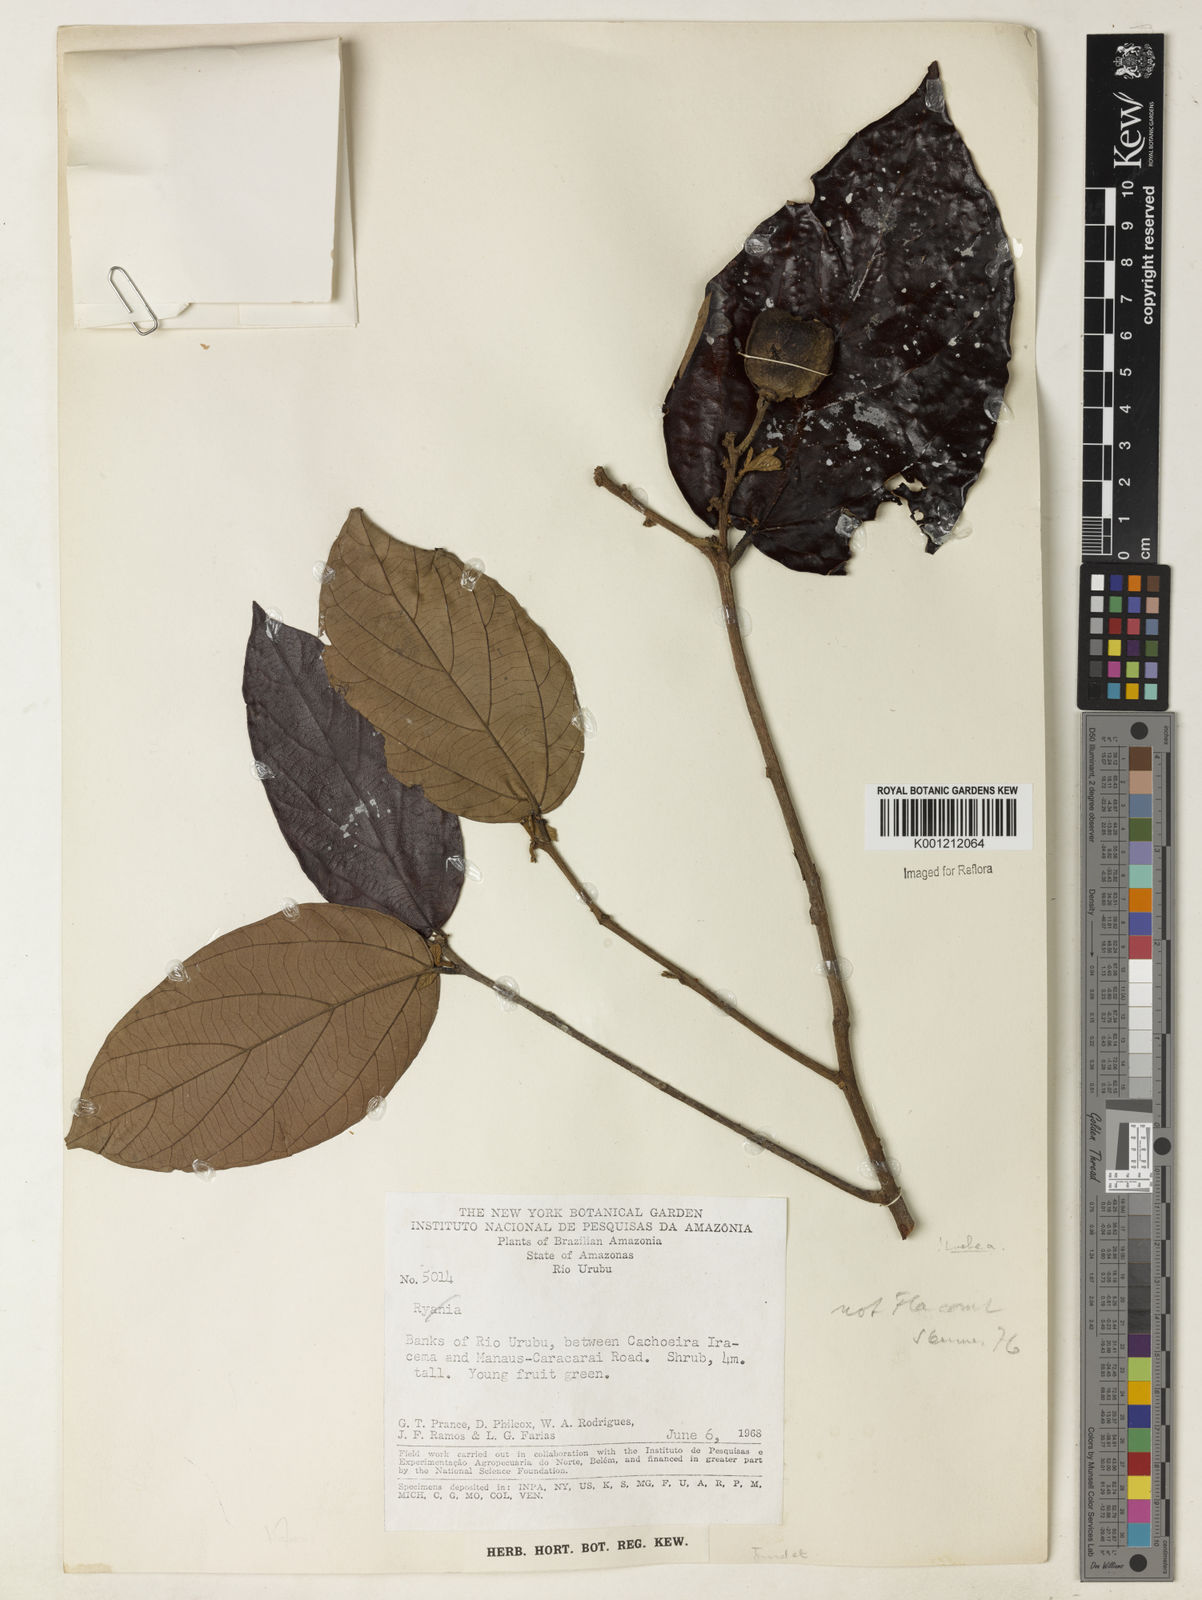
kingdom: Plantae
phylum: Tracheophyta
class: Magnoliopsida
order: Malvales
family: Malvaceae
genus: Mollia
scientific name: Mollia speciosa
